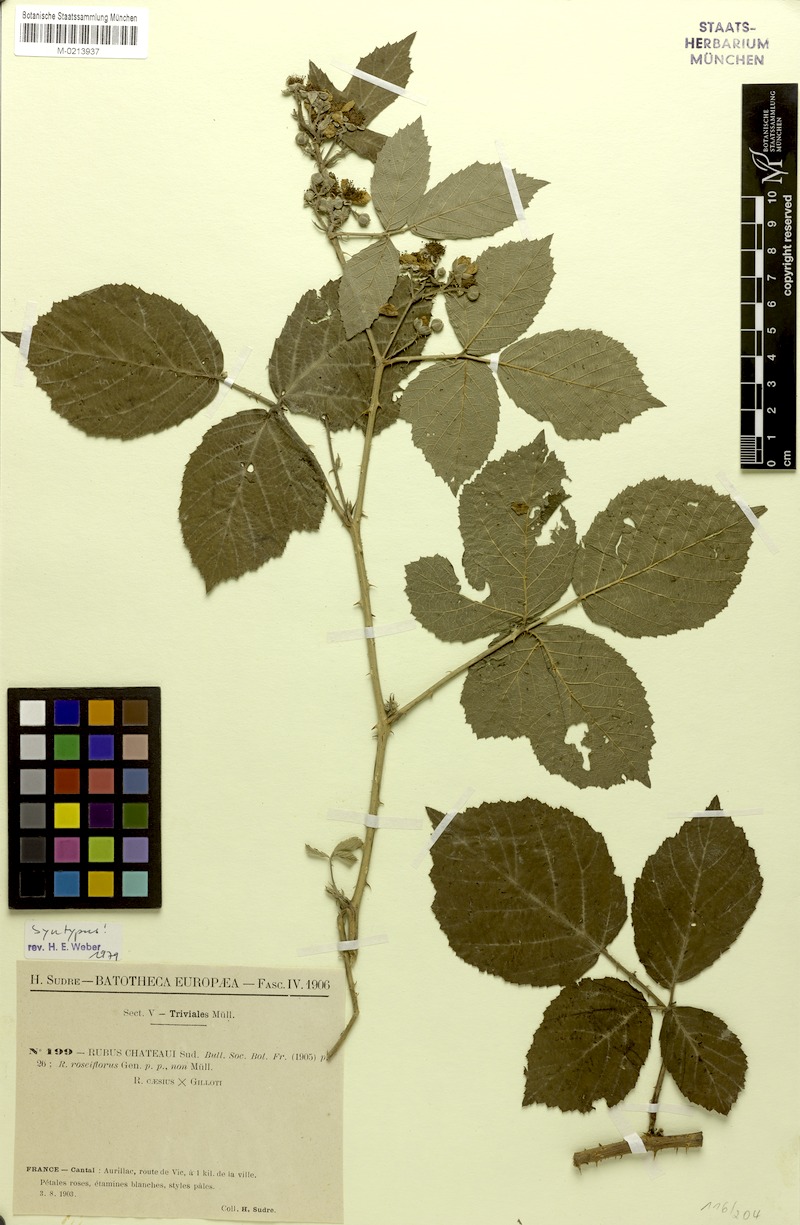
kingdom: Plantae
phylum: Tracheophyta
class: Magnoliopsida
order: Rosales
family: Rosaceae
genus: Rubus
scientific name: Rubus chateaui
